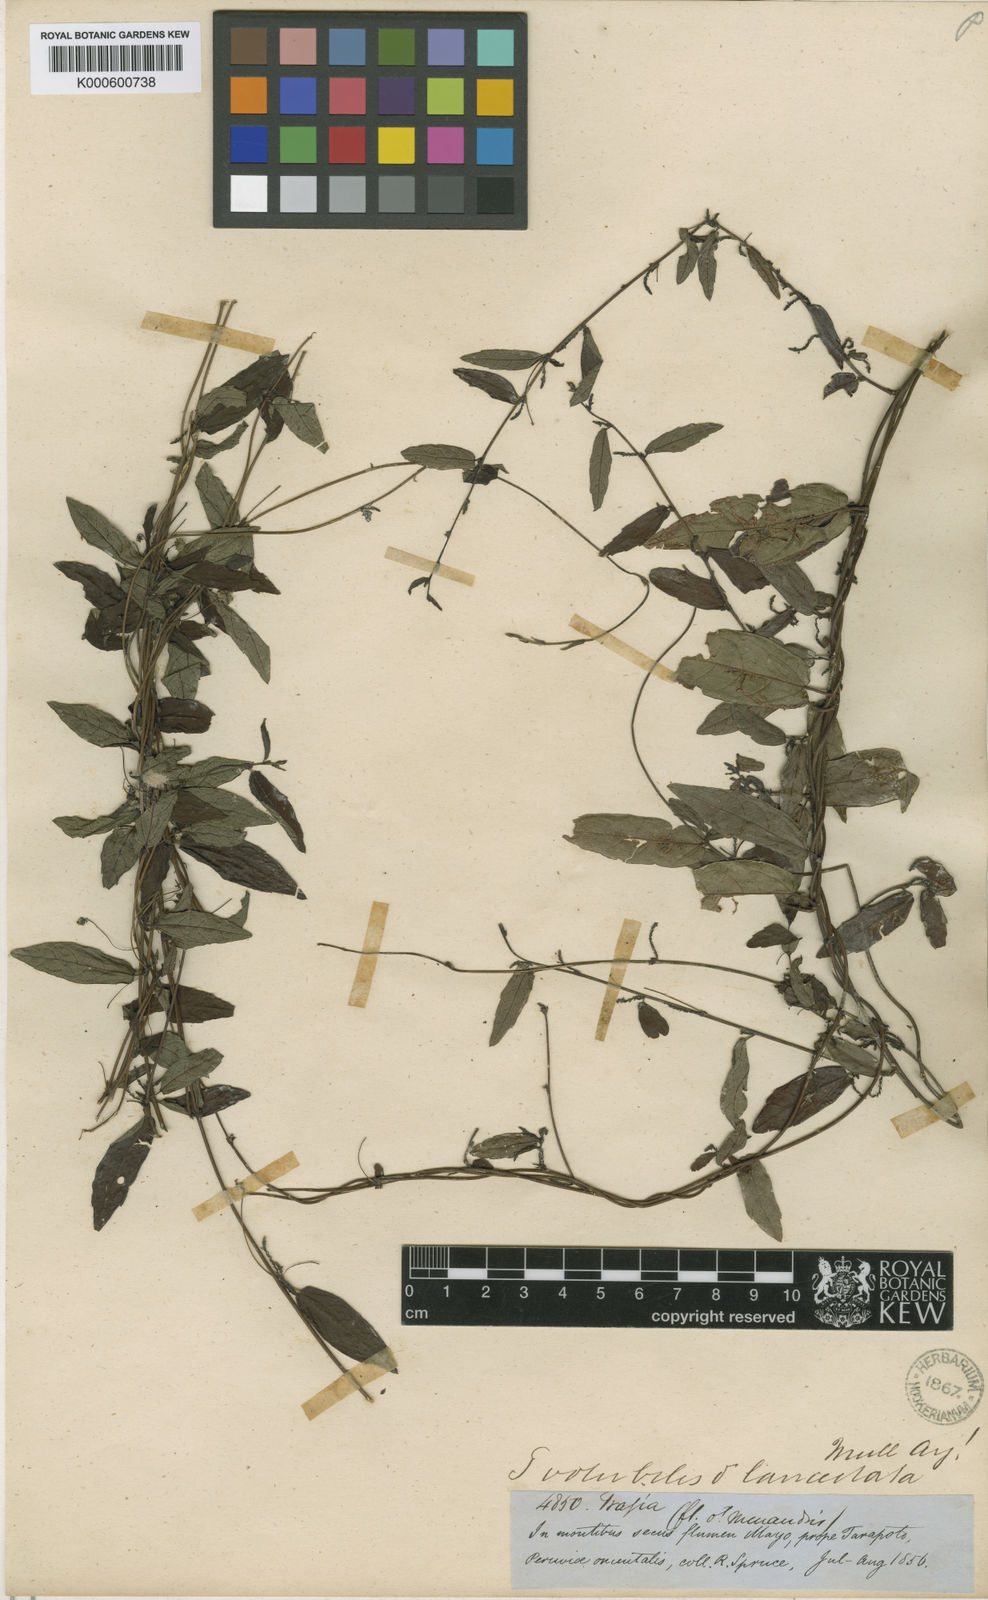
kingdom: Plantae
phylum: Tracheophyta
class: Magnoliopsida
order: Malpighiales
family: Euphorbiaceae
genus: Tragia
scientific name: Tragia volubilis
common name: Twining cow-itch
